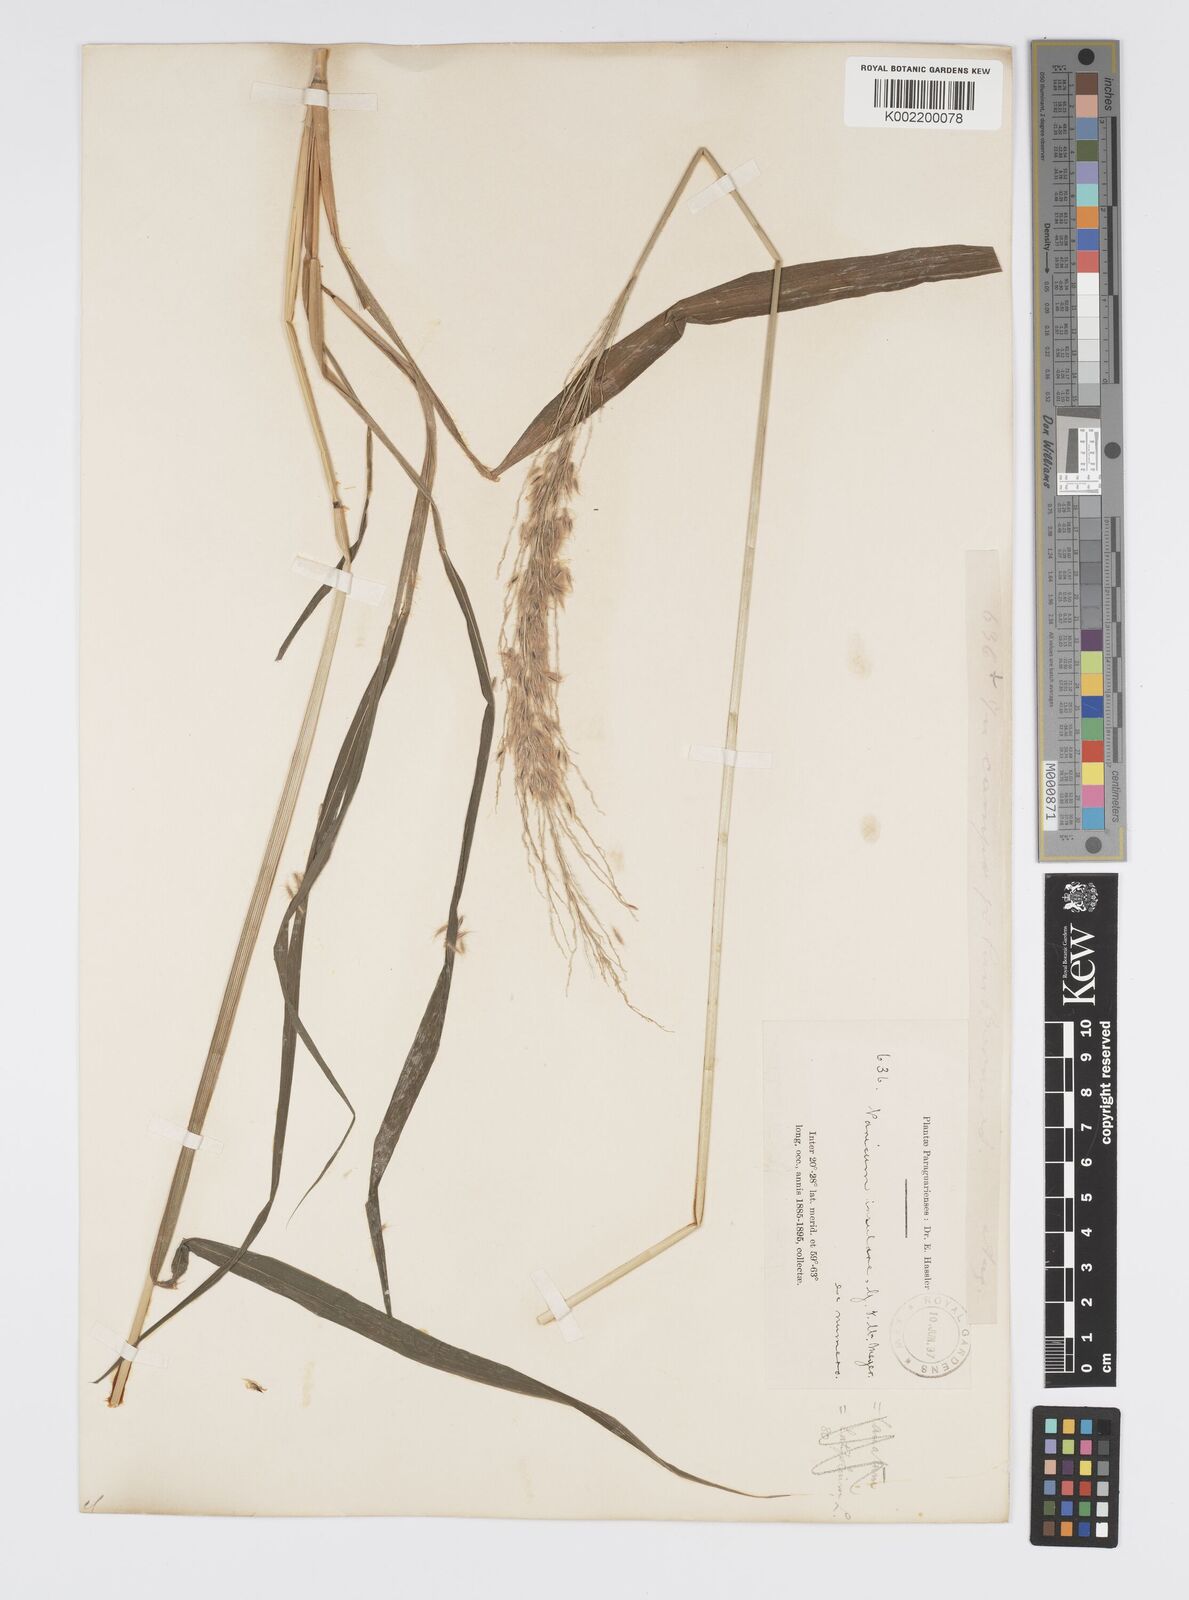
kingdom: Plantae
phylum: Tracheophyta
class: Liliopsida
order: Poales
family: Poaceae
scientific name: Poaceae
